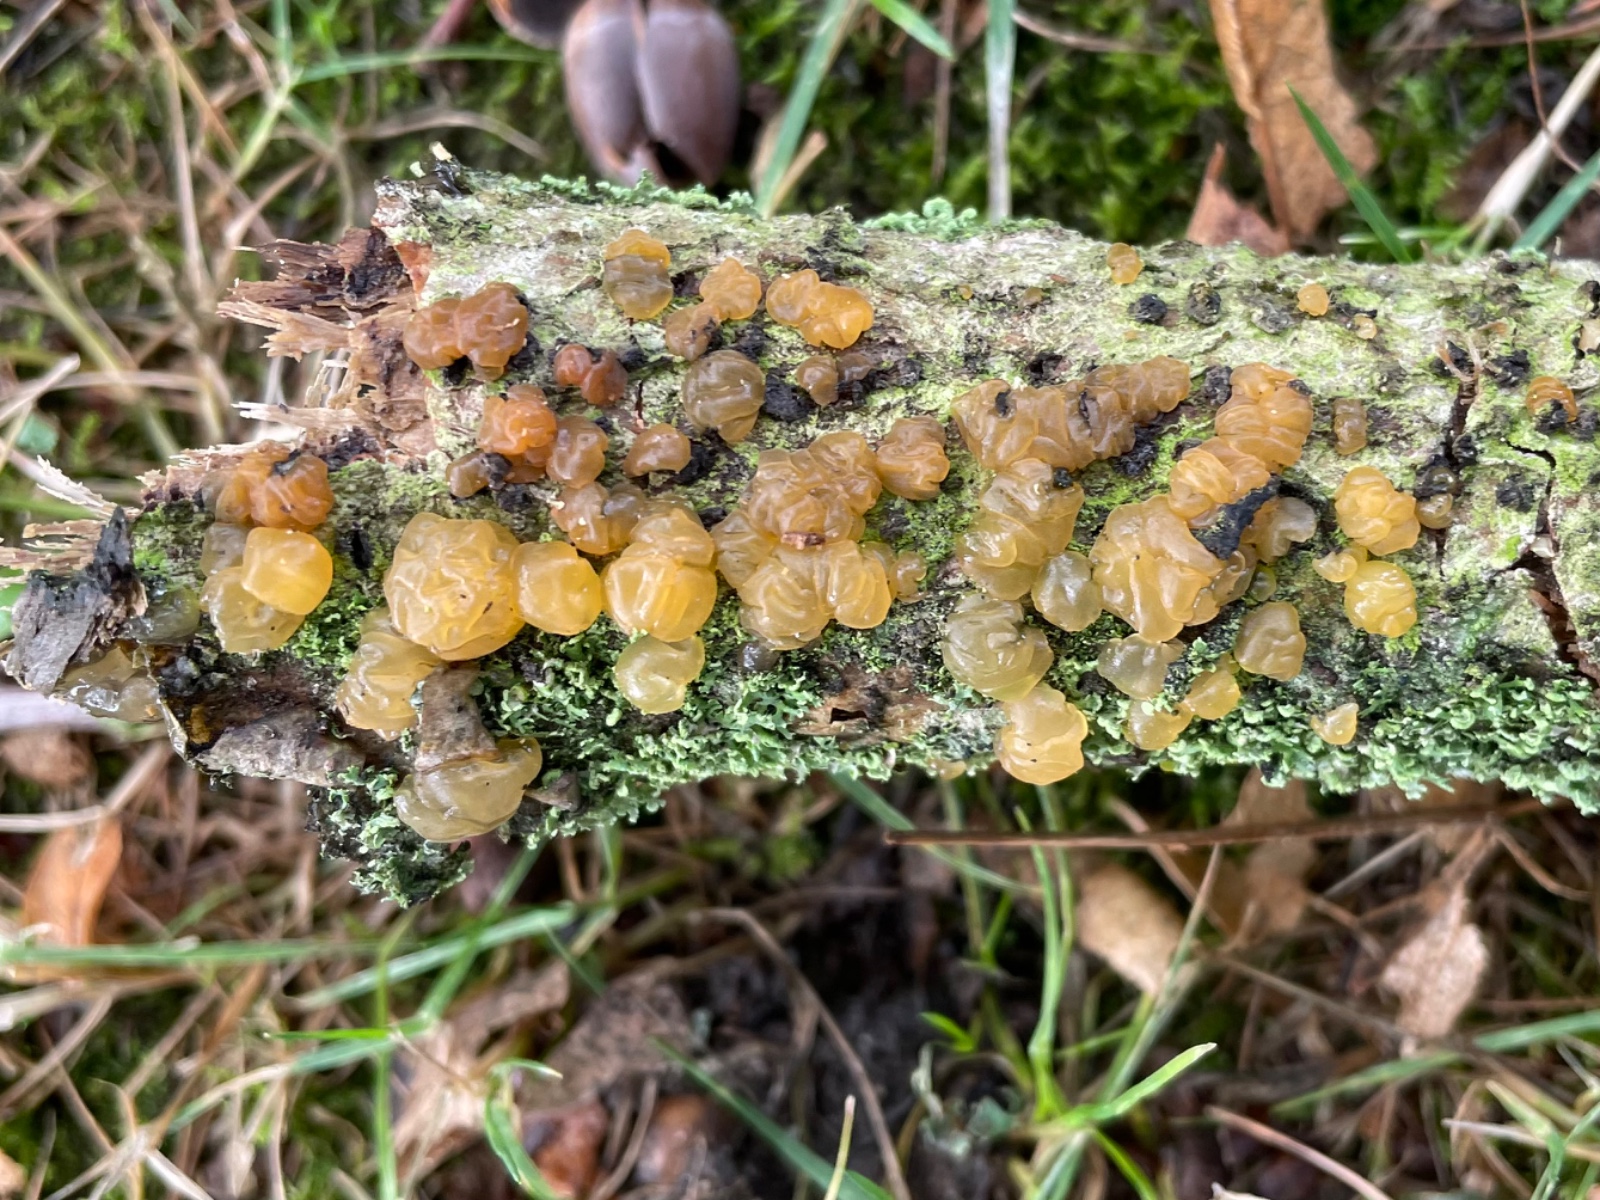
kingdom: Fungi
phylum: Basidiomycota
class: Dacrymycetes
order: Dacrymycetales
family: Dacrymycetaceae
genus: Dacrymyces
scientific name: Dacrymyces lacrymalis
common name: rynket tåresvamp
